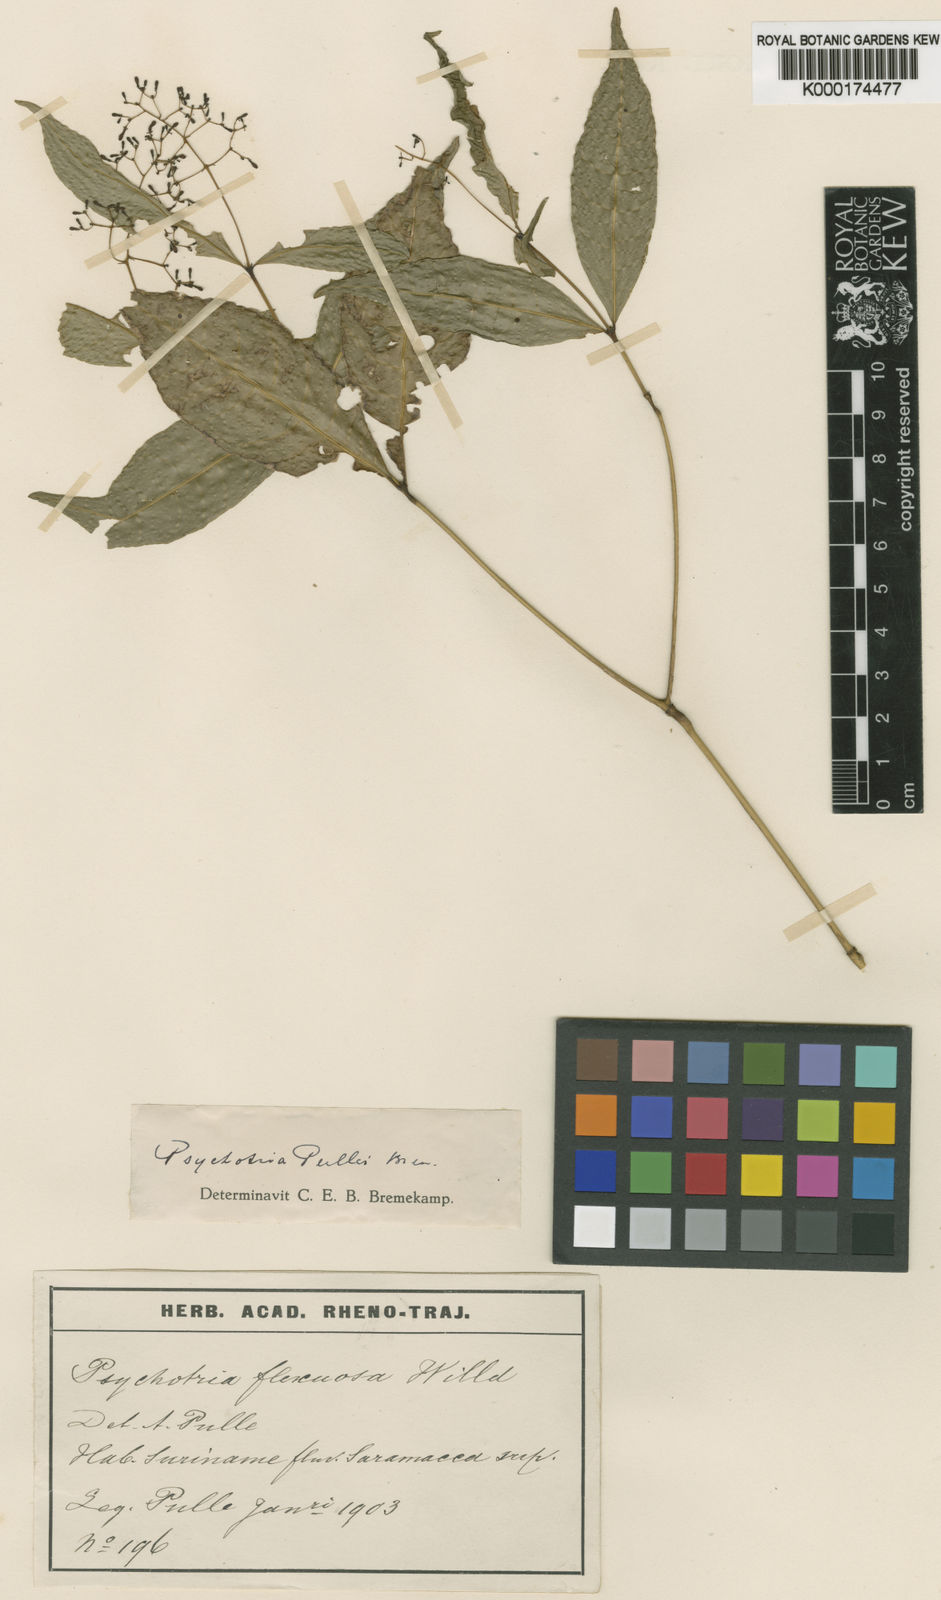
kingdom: Plantae
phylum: Tracheophyta
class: Magnoliopsida
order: Gentianales
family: Rubiaceae
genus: Palicourea
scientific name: Palicourea pullei
